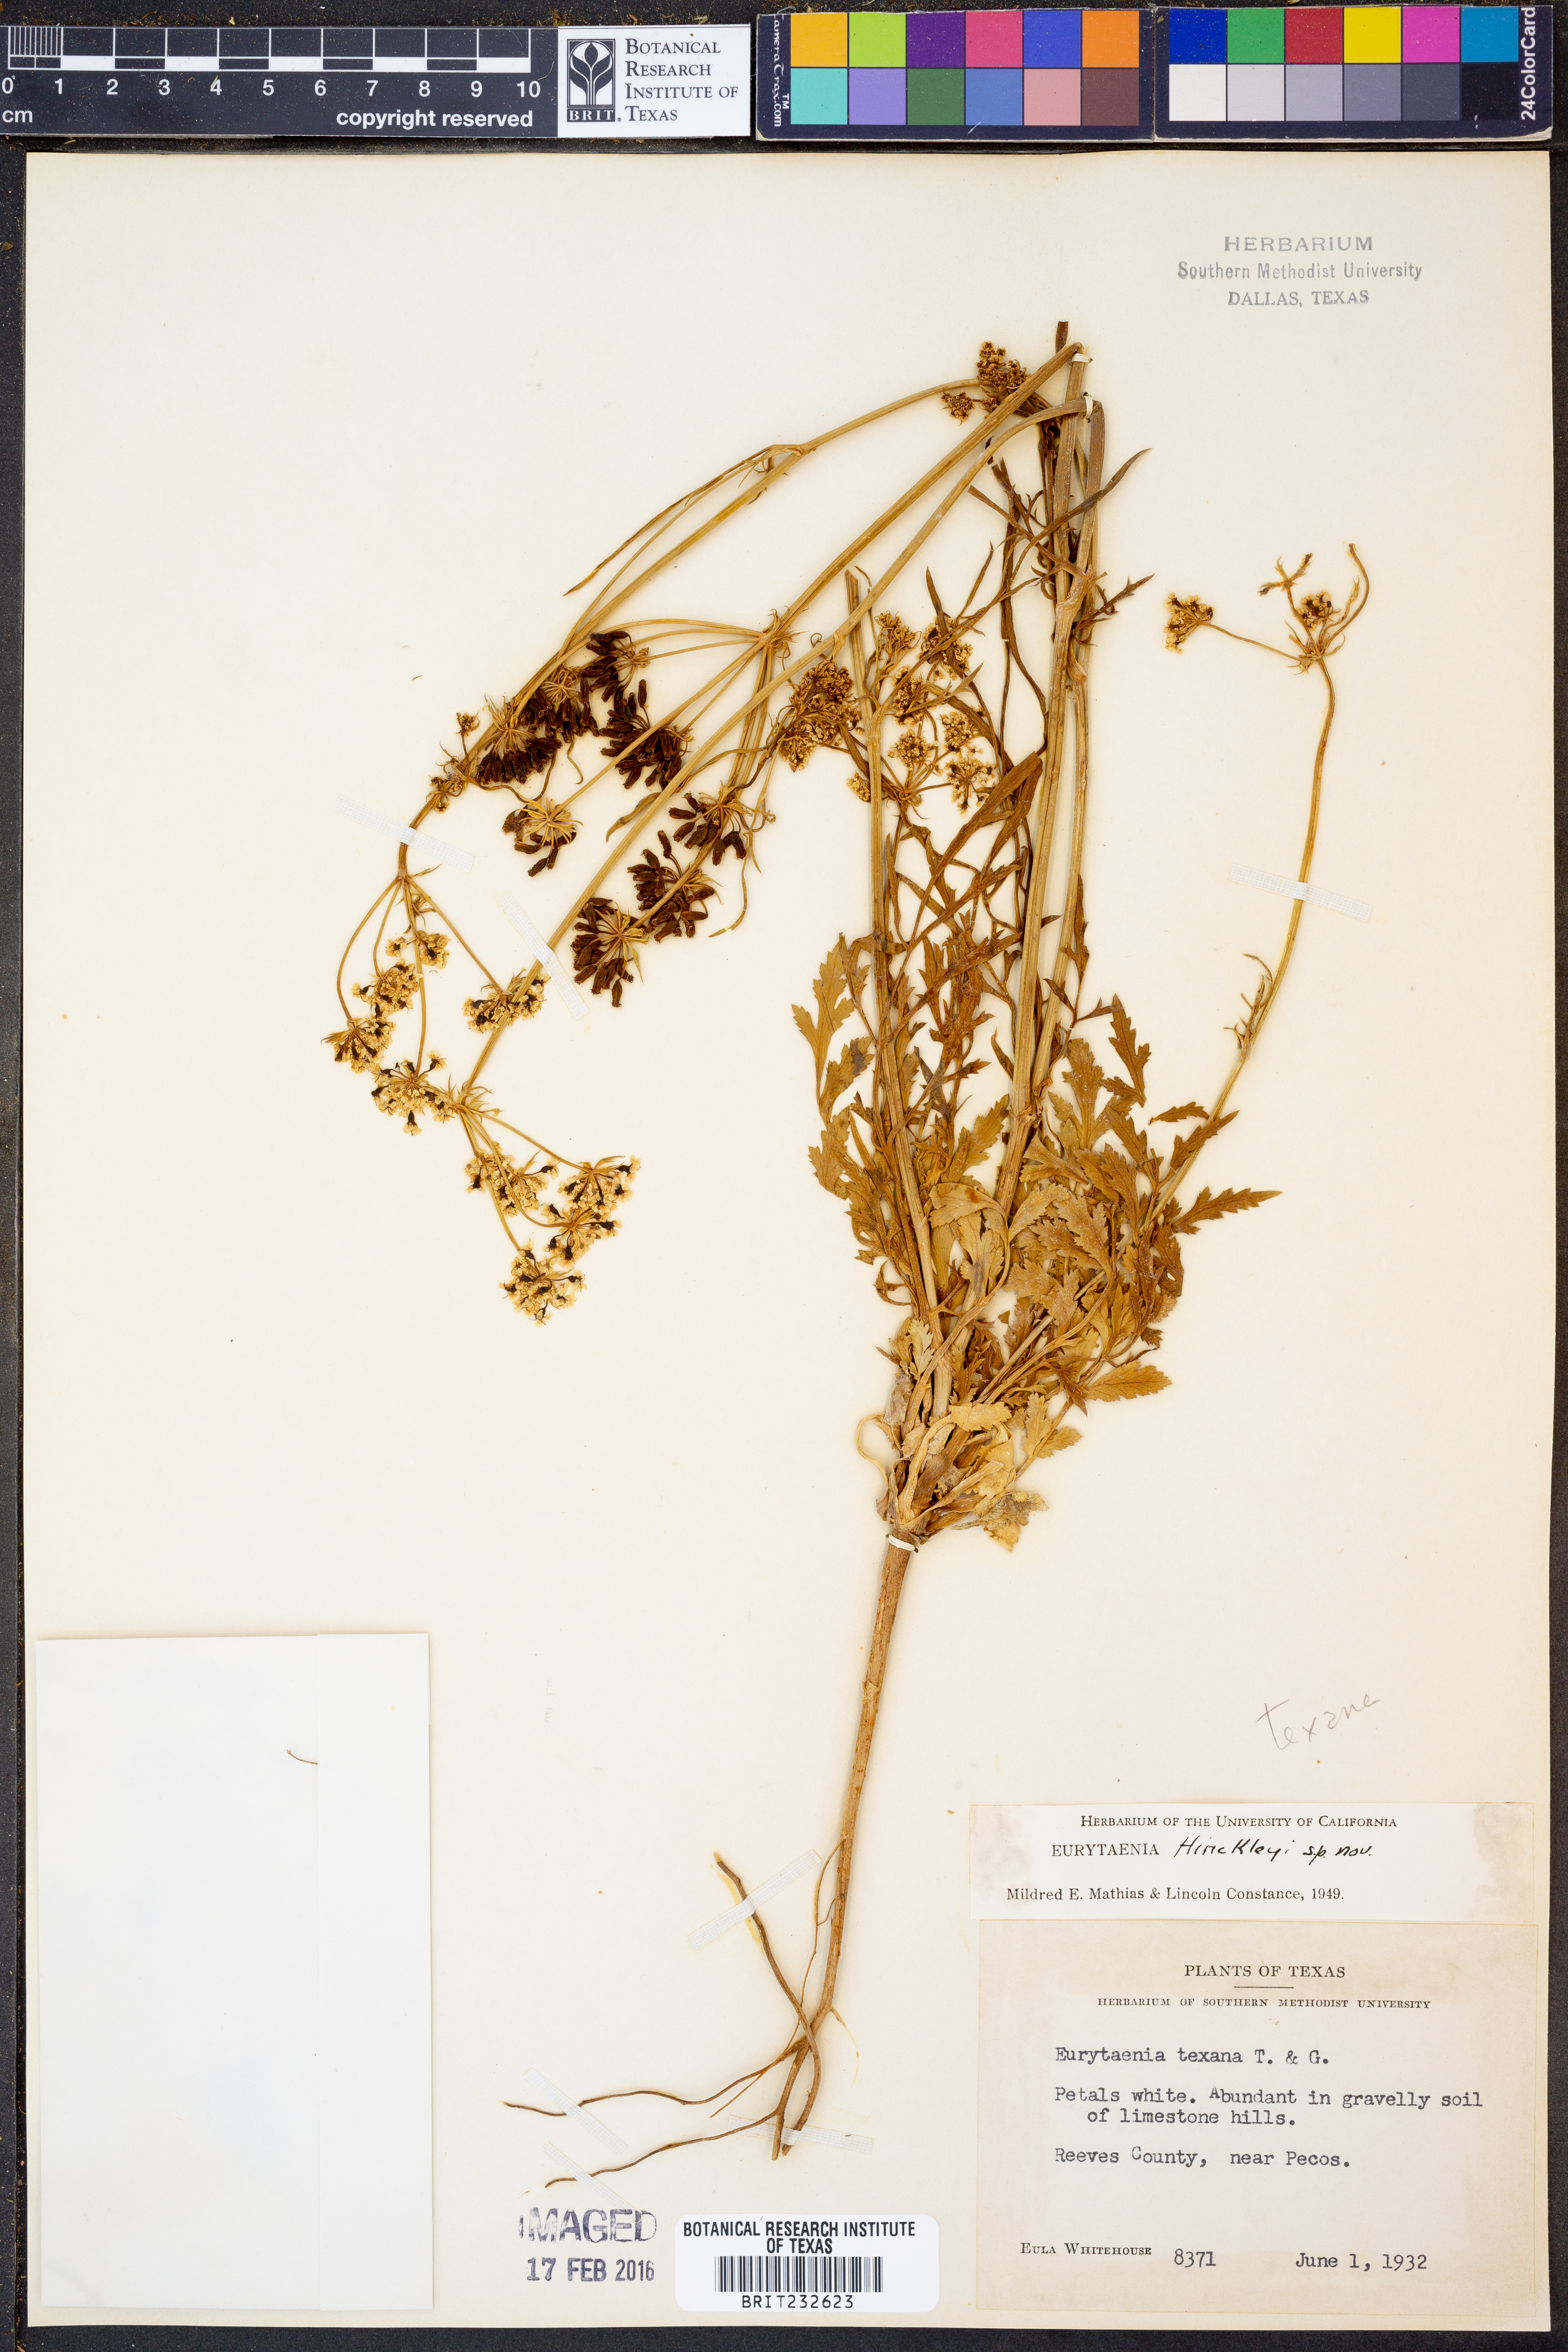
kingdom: Plantae
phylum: Tracheophyta
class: Magnoliopsida
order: Apiales
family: Apiaceae
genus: Eurytaenia
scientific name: Eurytaenia hinckleyi
